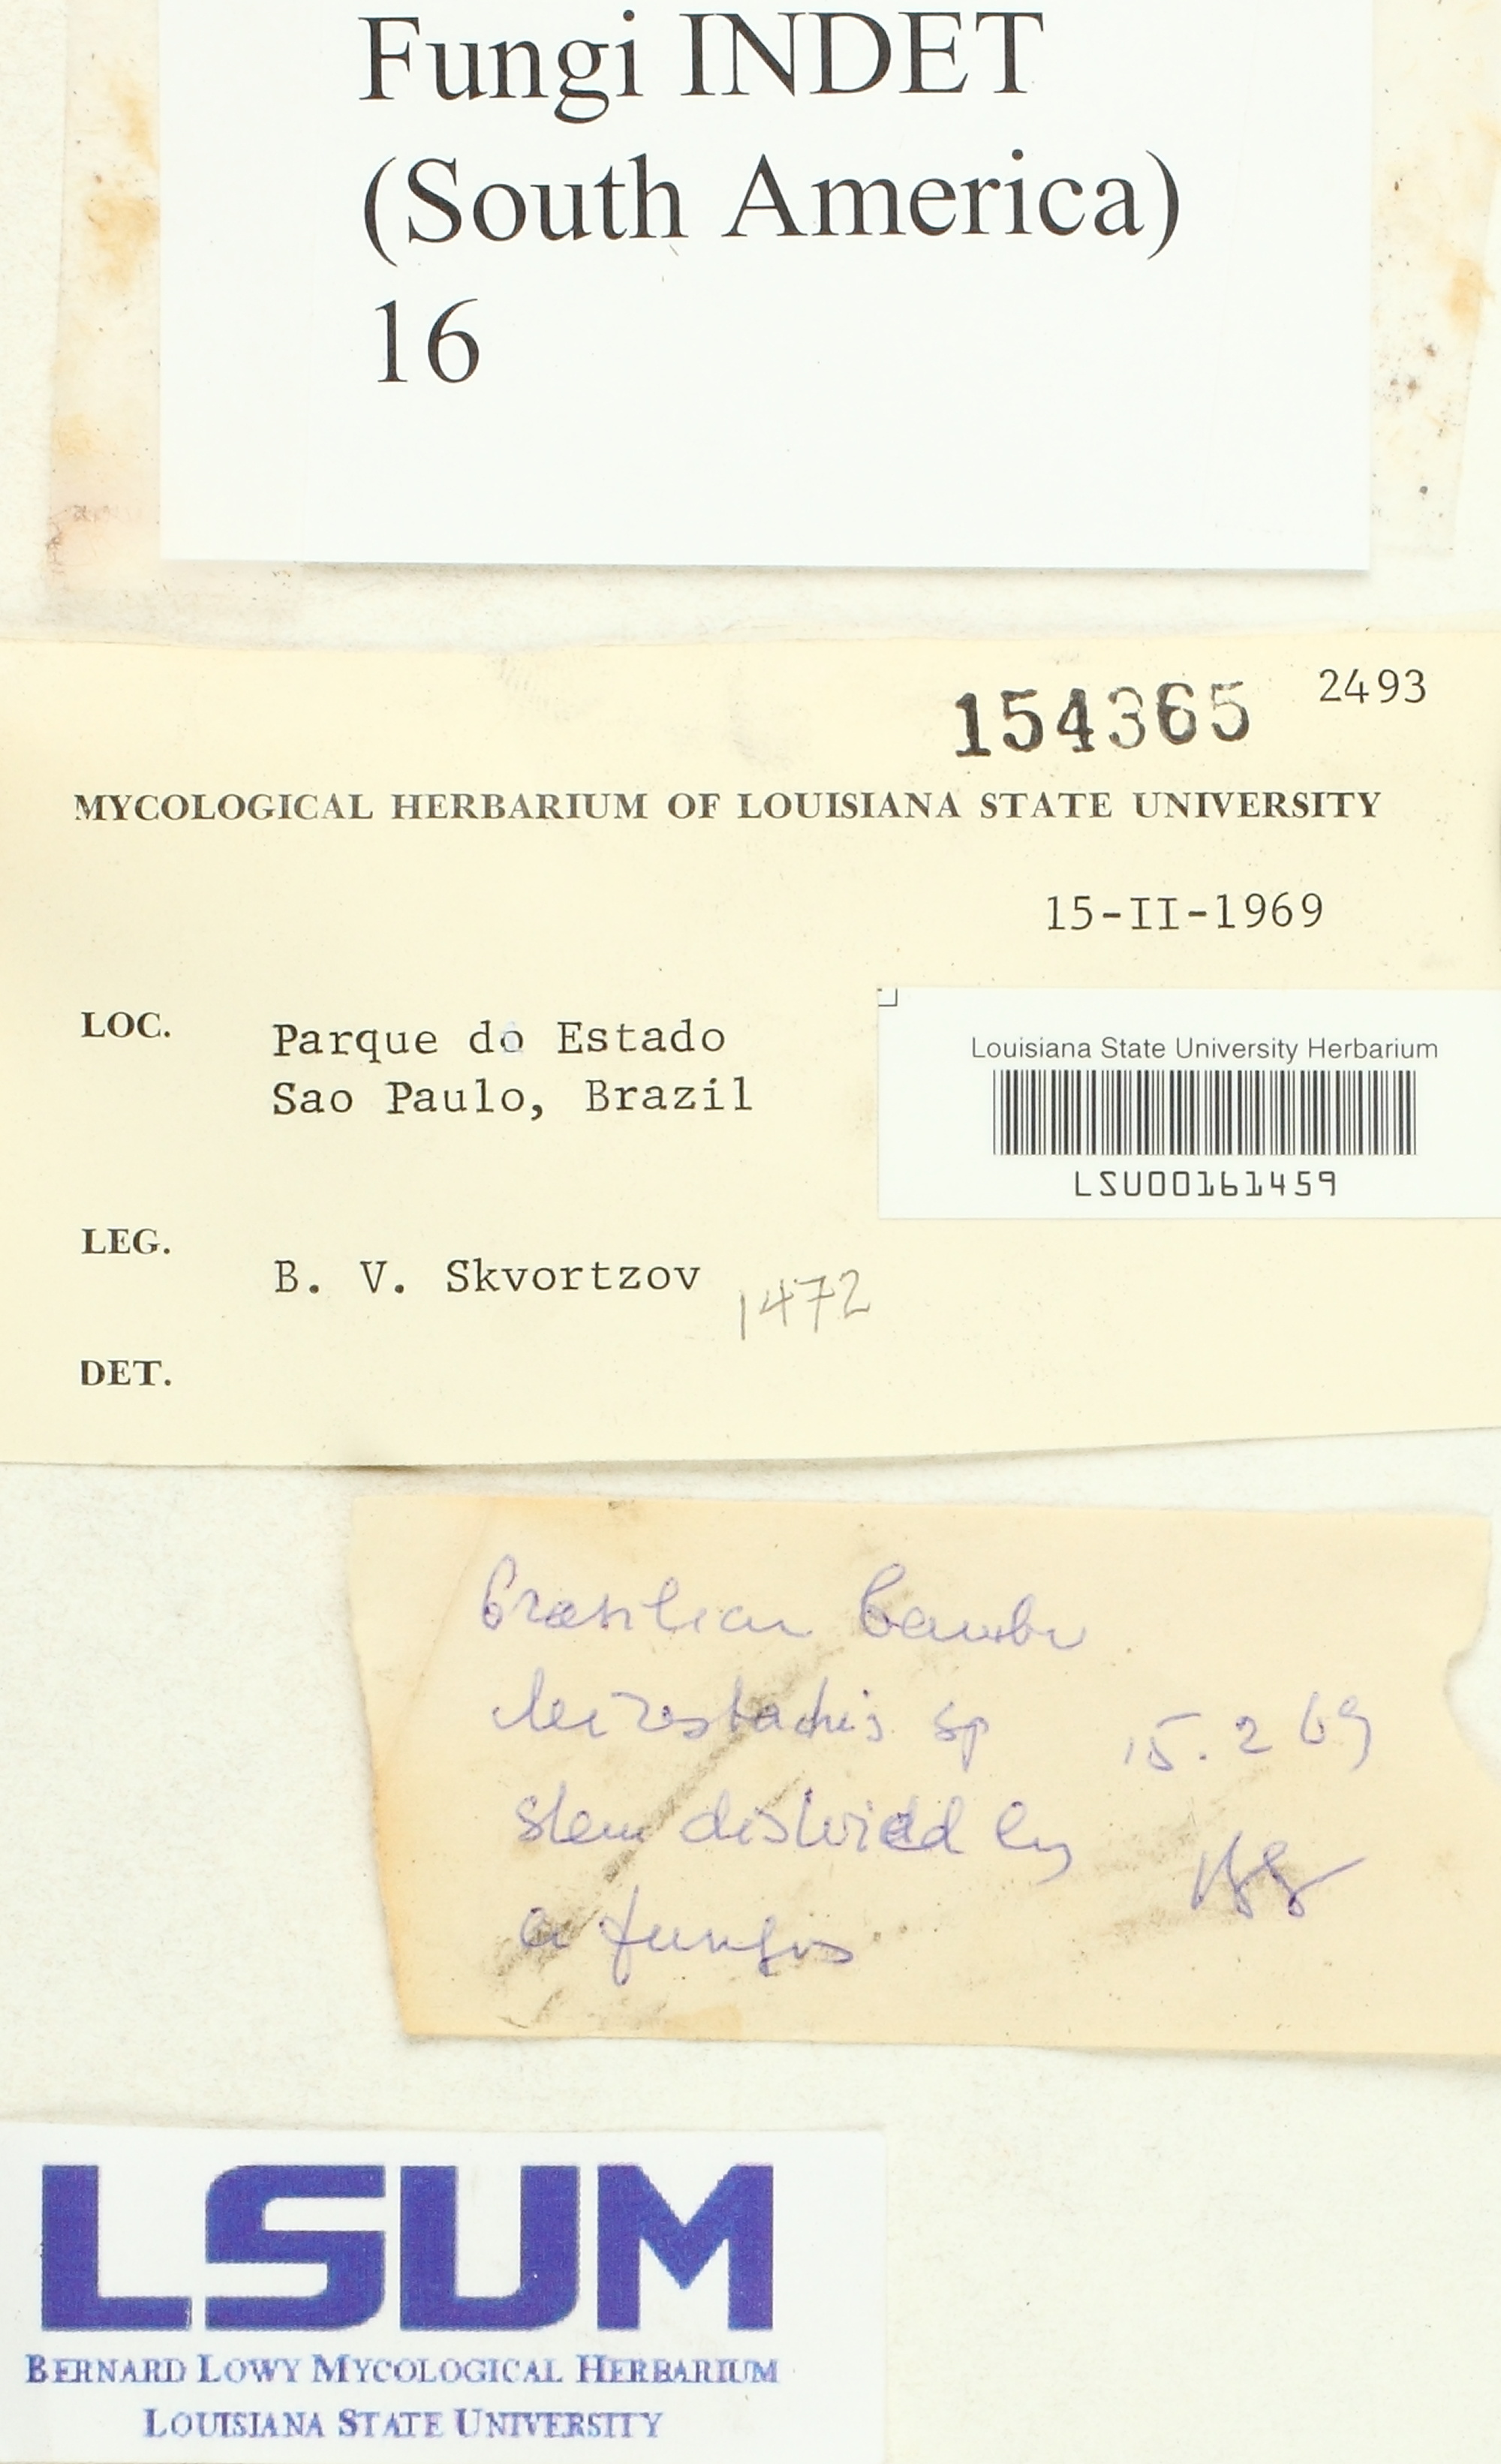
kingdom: Fungi
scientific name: Fungi
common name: Fungi
